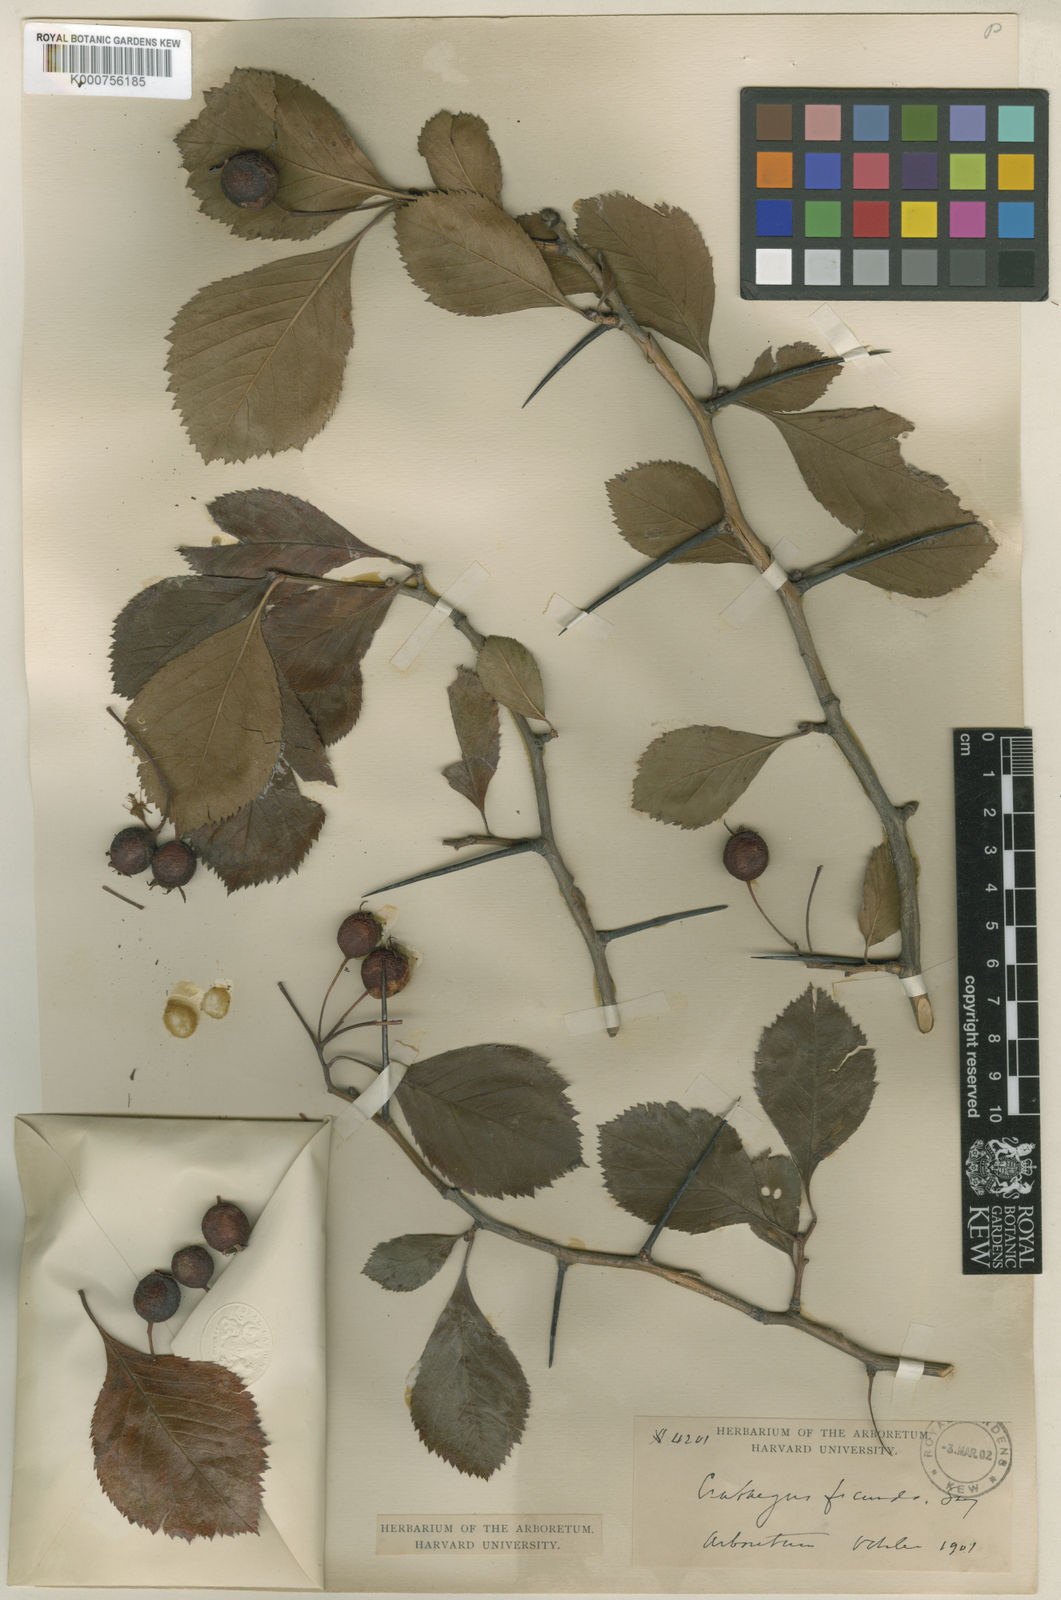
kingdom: Plantae
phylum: Tracheophyta
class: Magnoliopsida
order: Rosales
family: Rosaceae
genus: Crataegus
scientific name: Crataegus fecunda
